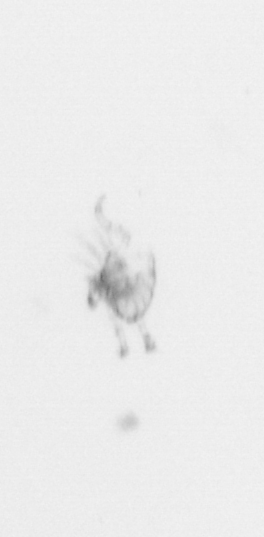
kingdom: Chromista
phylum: Ochrophyta
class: Bacillariophyceae
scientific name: Bacillariophyceae
